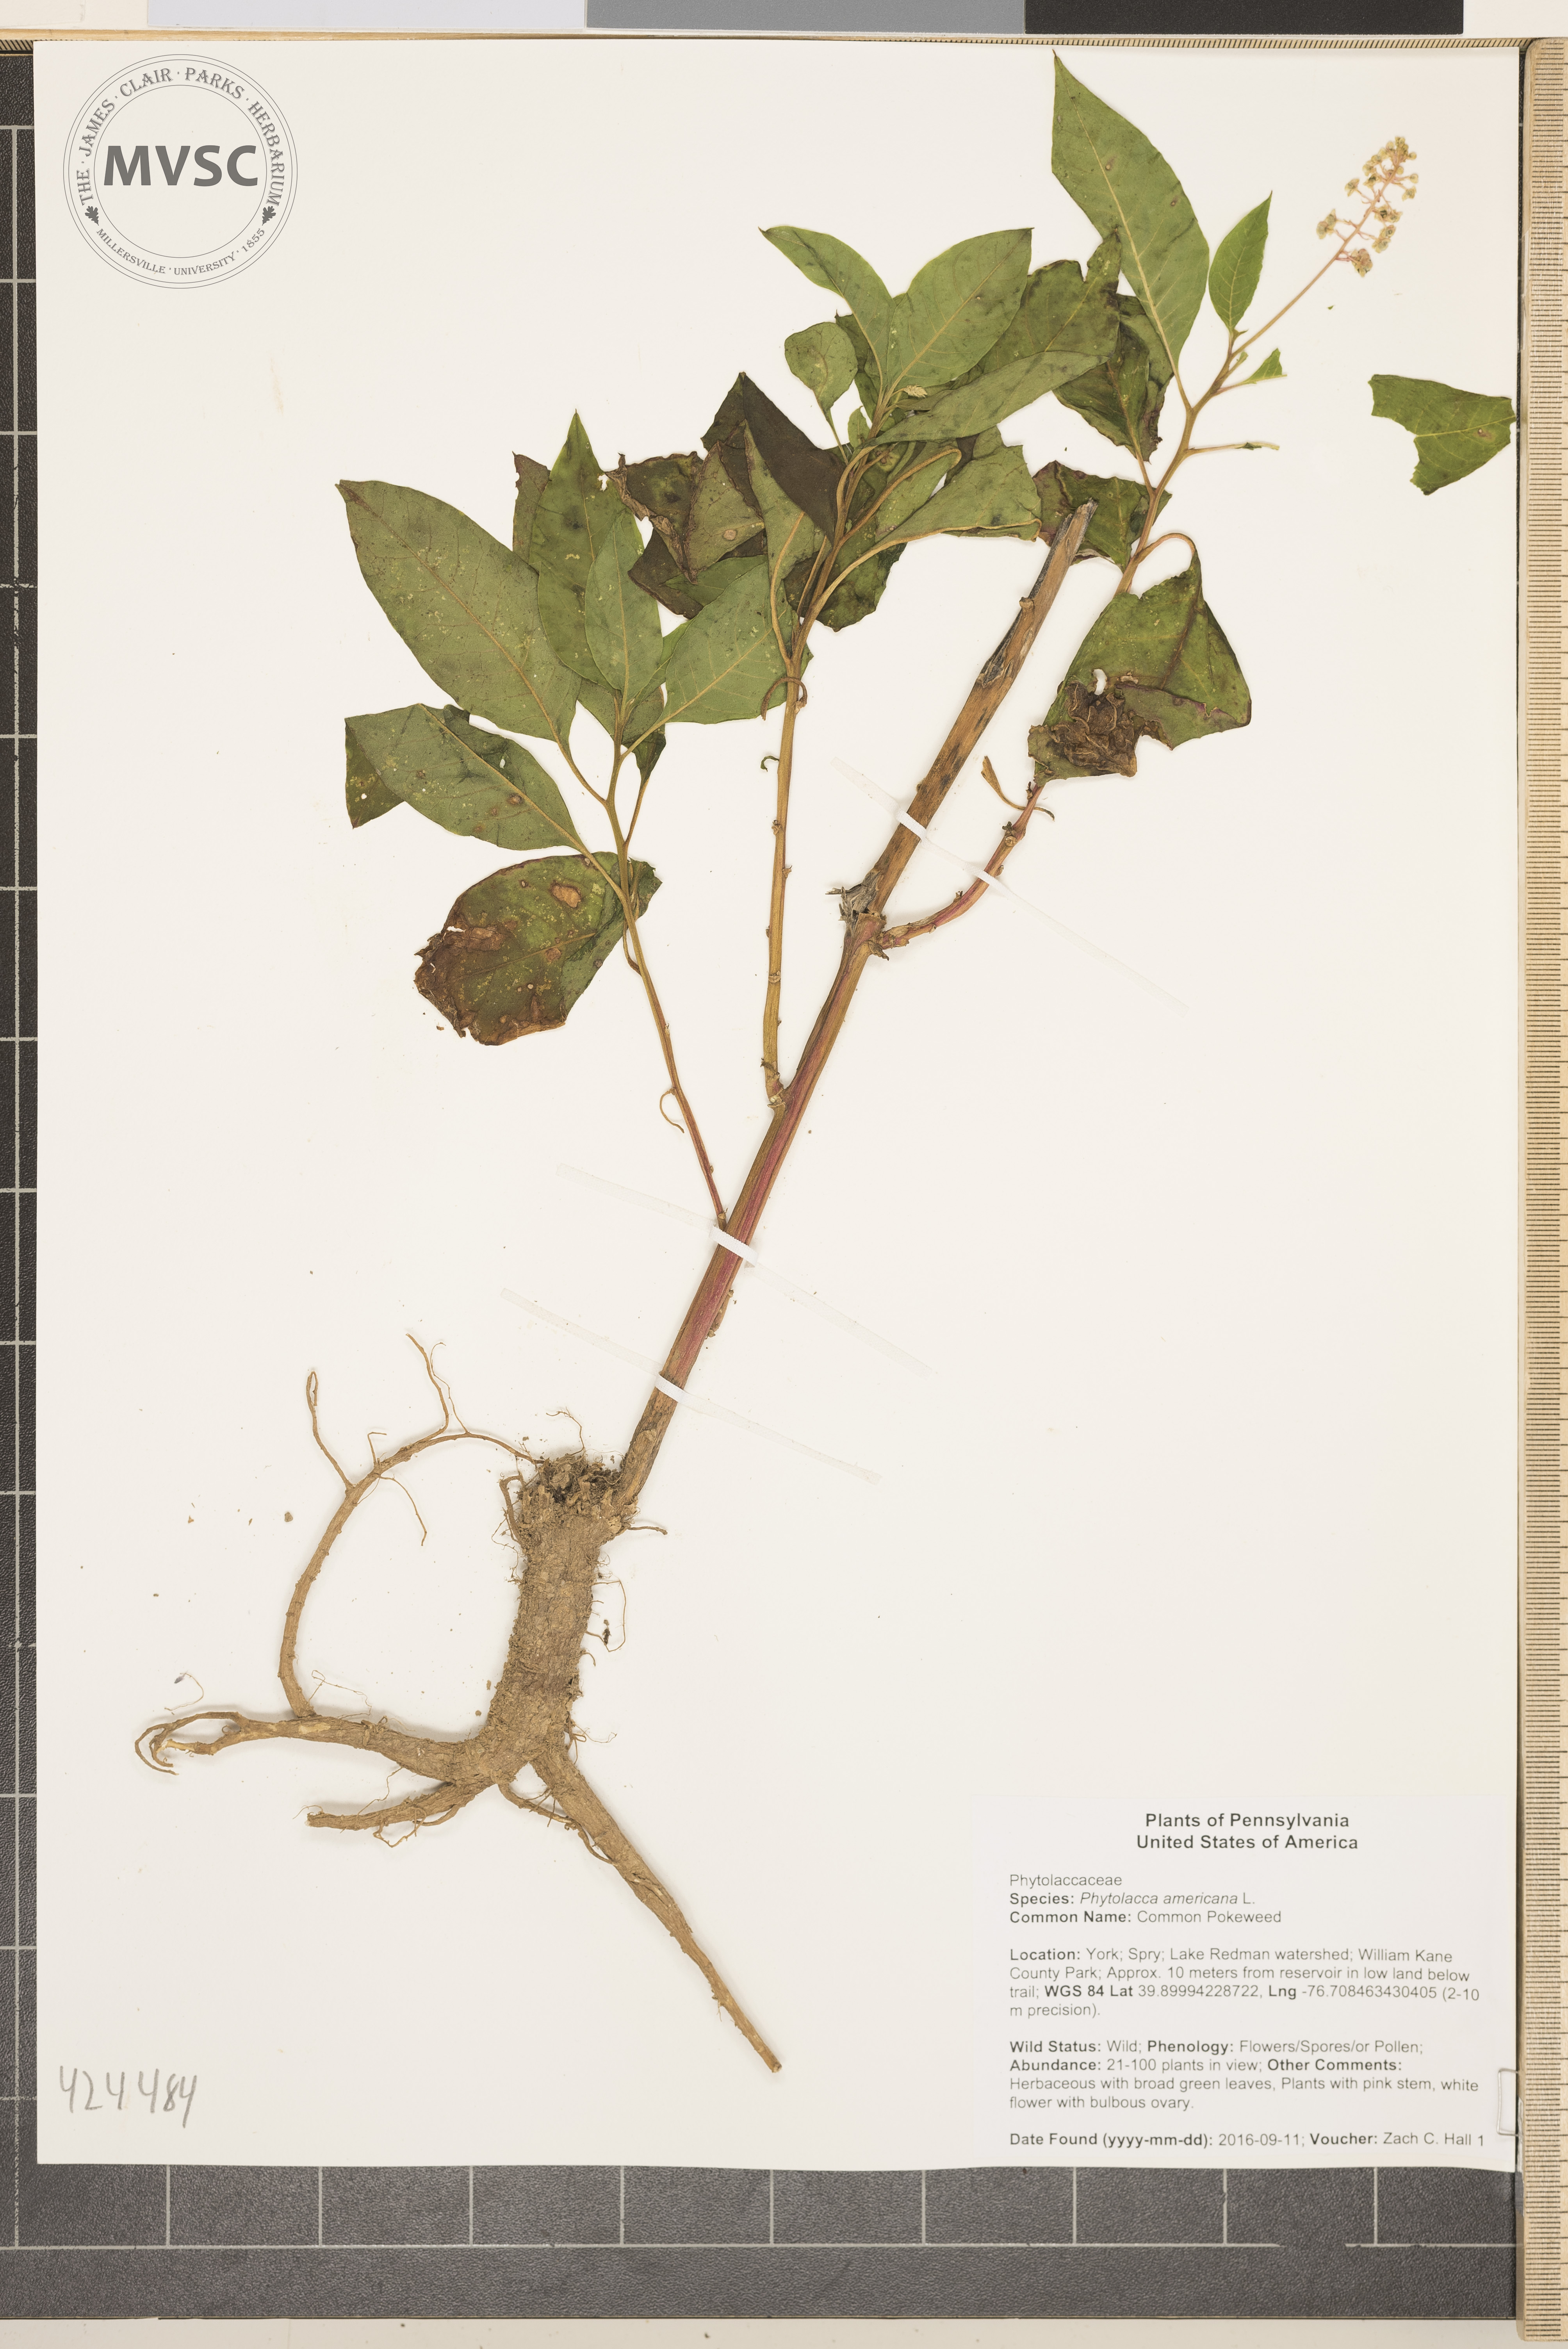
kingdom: Plantae
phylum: Tracheophyta
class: Magnoliopsida
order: Caryophyllales
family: Phytolaccaceae
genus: Phytolacca
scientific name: Phytolacca americana
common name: Common Pokeweed
